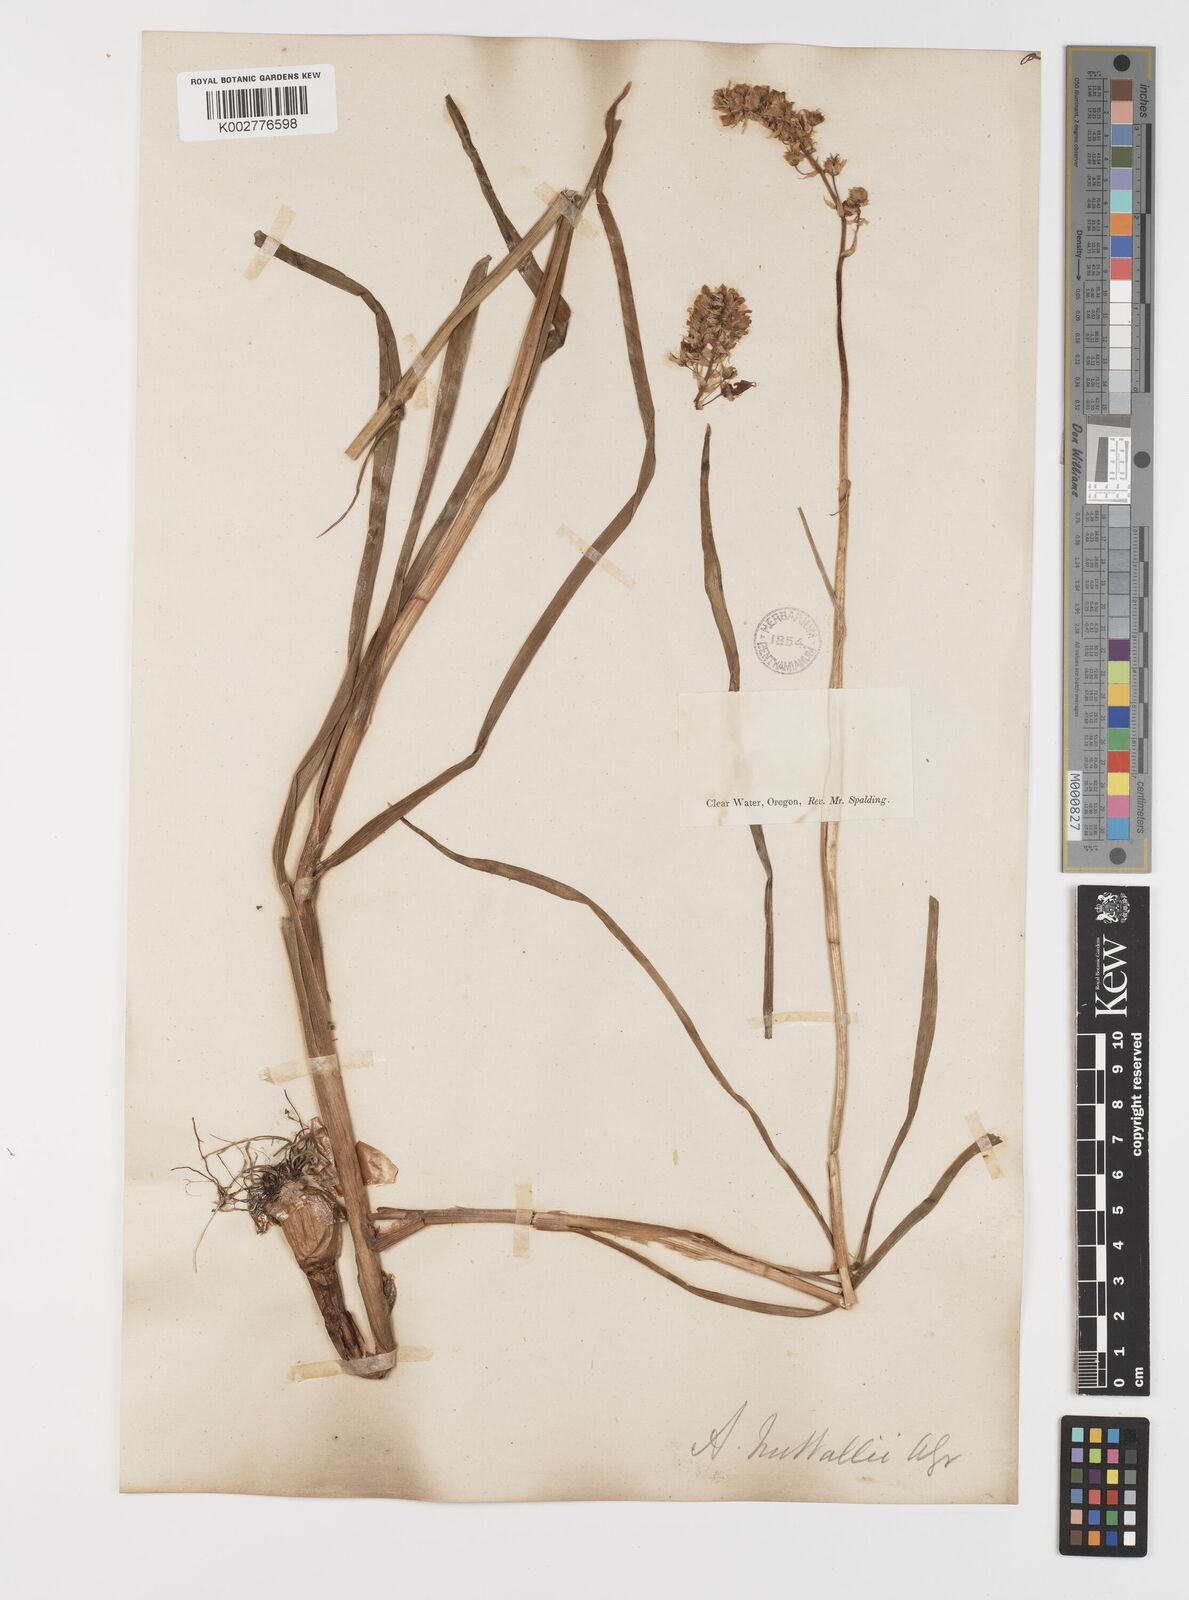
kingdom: Plantae
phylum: Tracheophyta
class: Liliopsida
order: Liliales
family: Melanthiaceae
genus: Toxicoscordion
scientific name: Toxicoscordion nuttallii
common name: Poison sego
